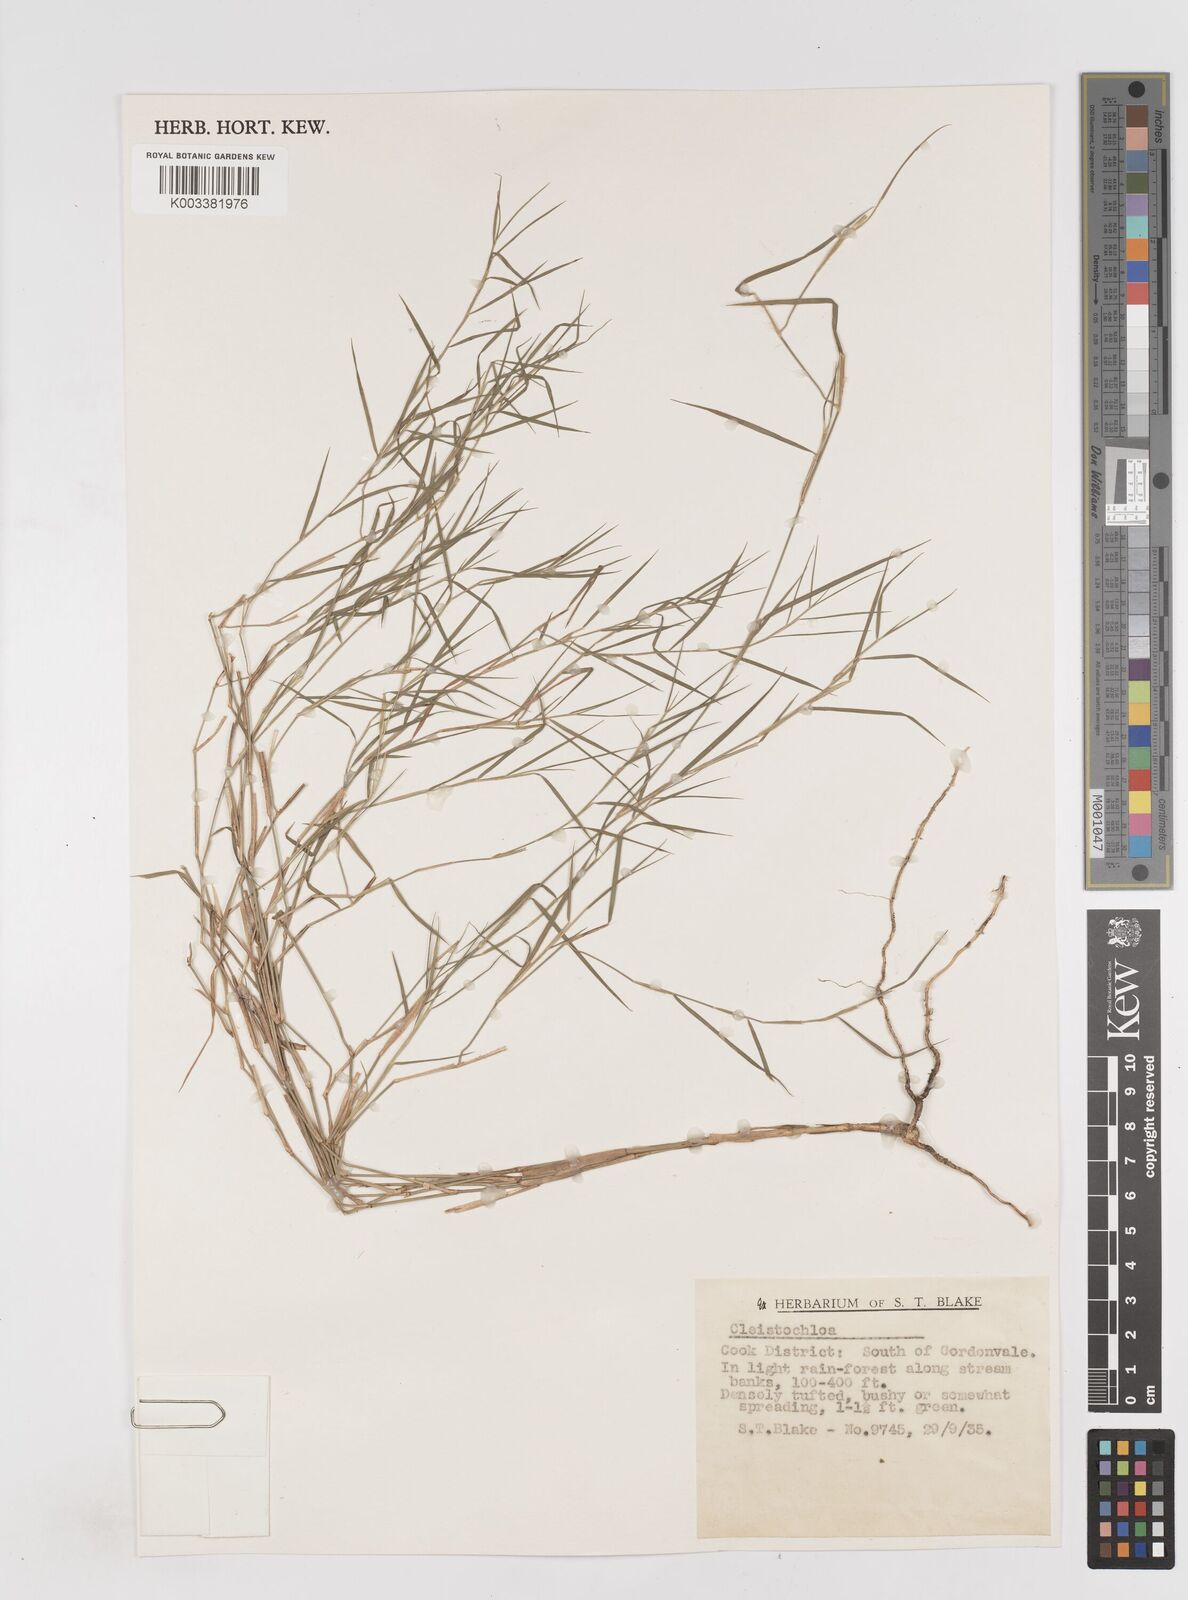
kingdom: Plantae
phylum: Tracheophyta
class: Liliopsida
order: Poales
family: Poaceae
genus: Cleistochloa
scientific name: Cleistochloa
